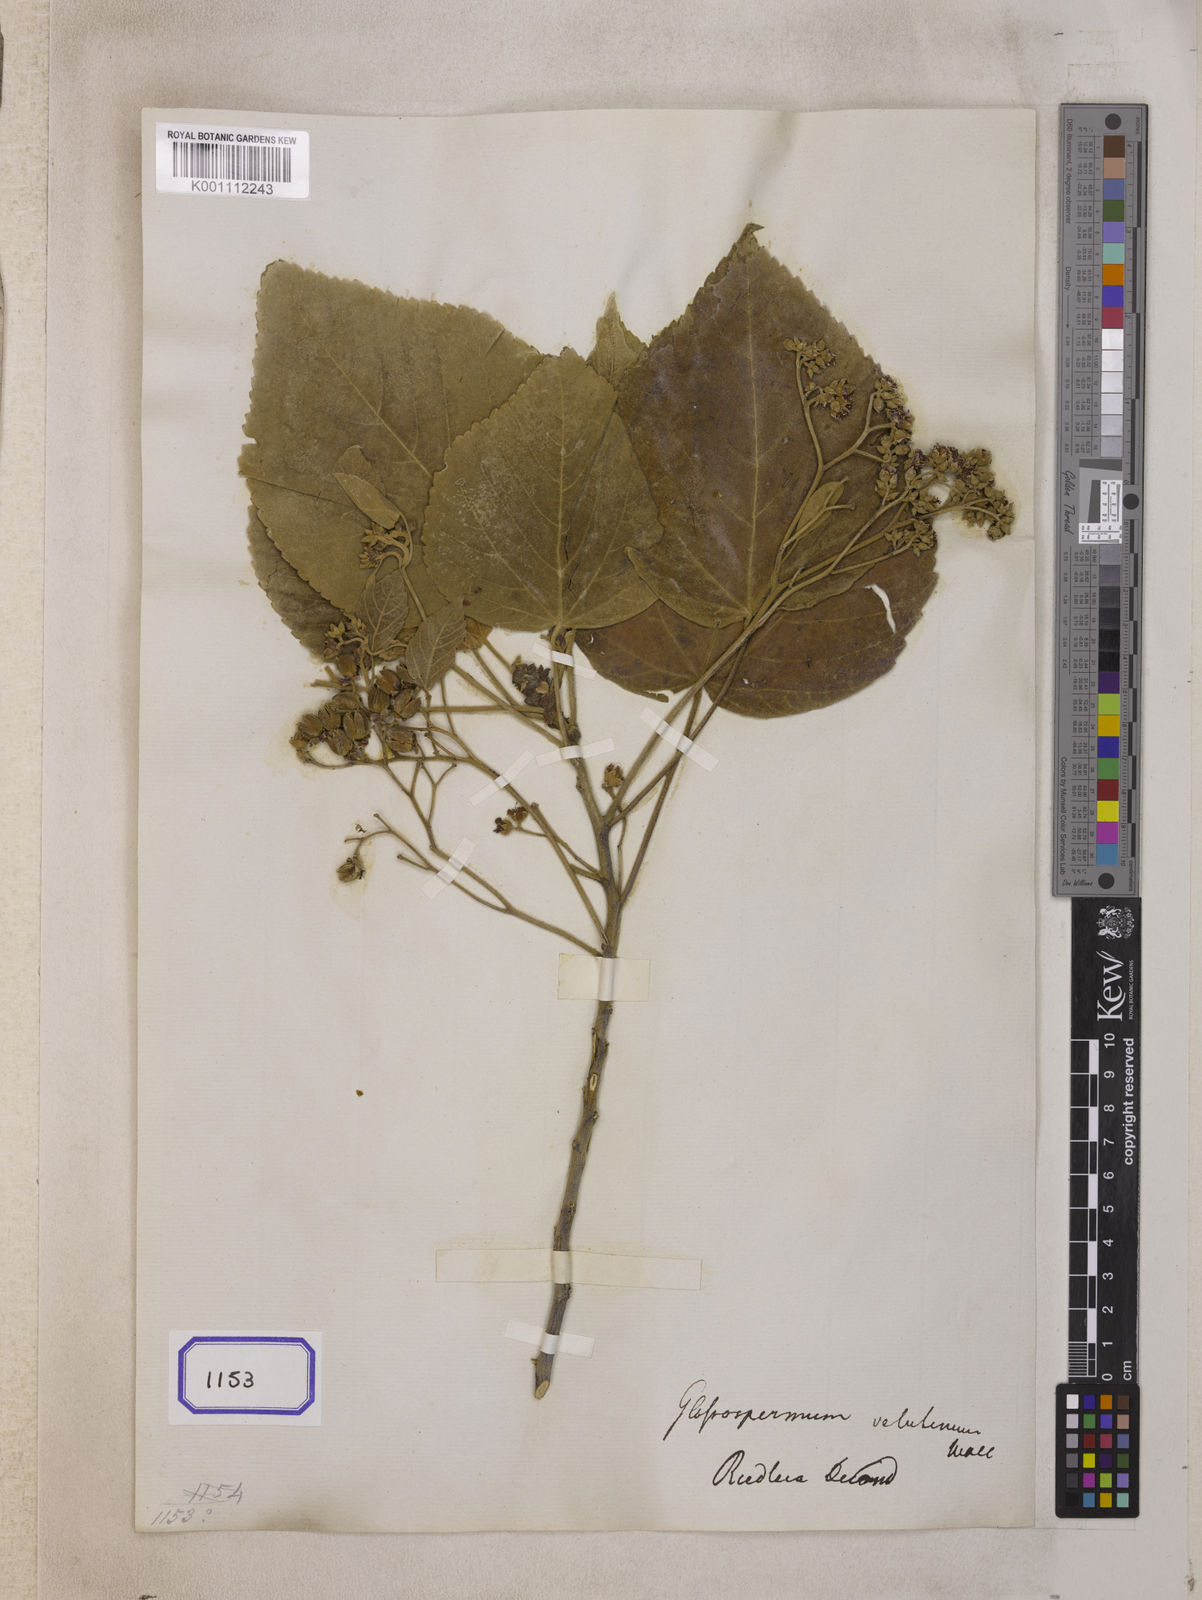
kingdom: Plantae
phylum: Tracheophyta
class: Magnoliopsida
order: Malvales
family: Malvaceae
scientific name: Malvaceae
